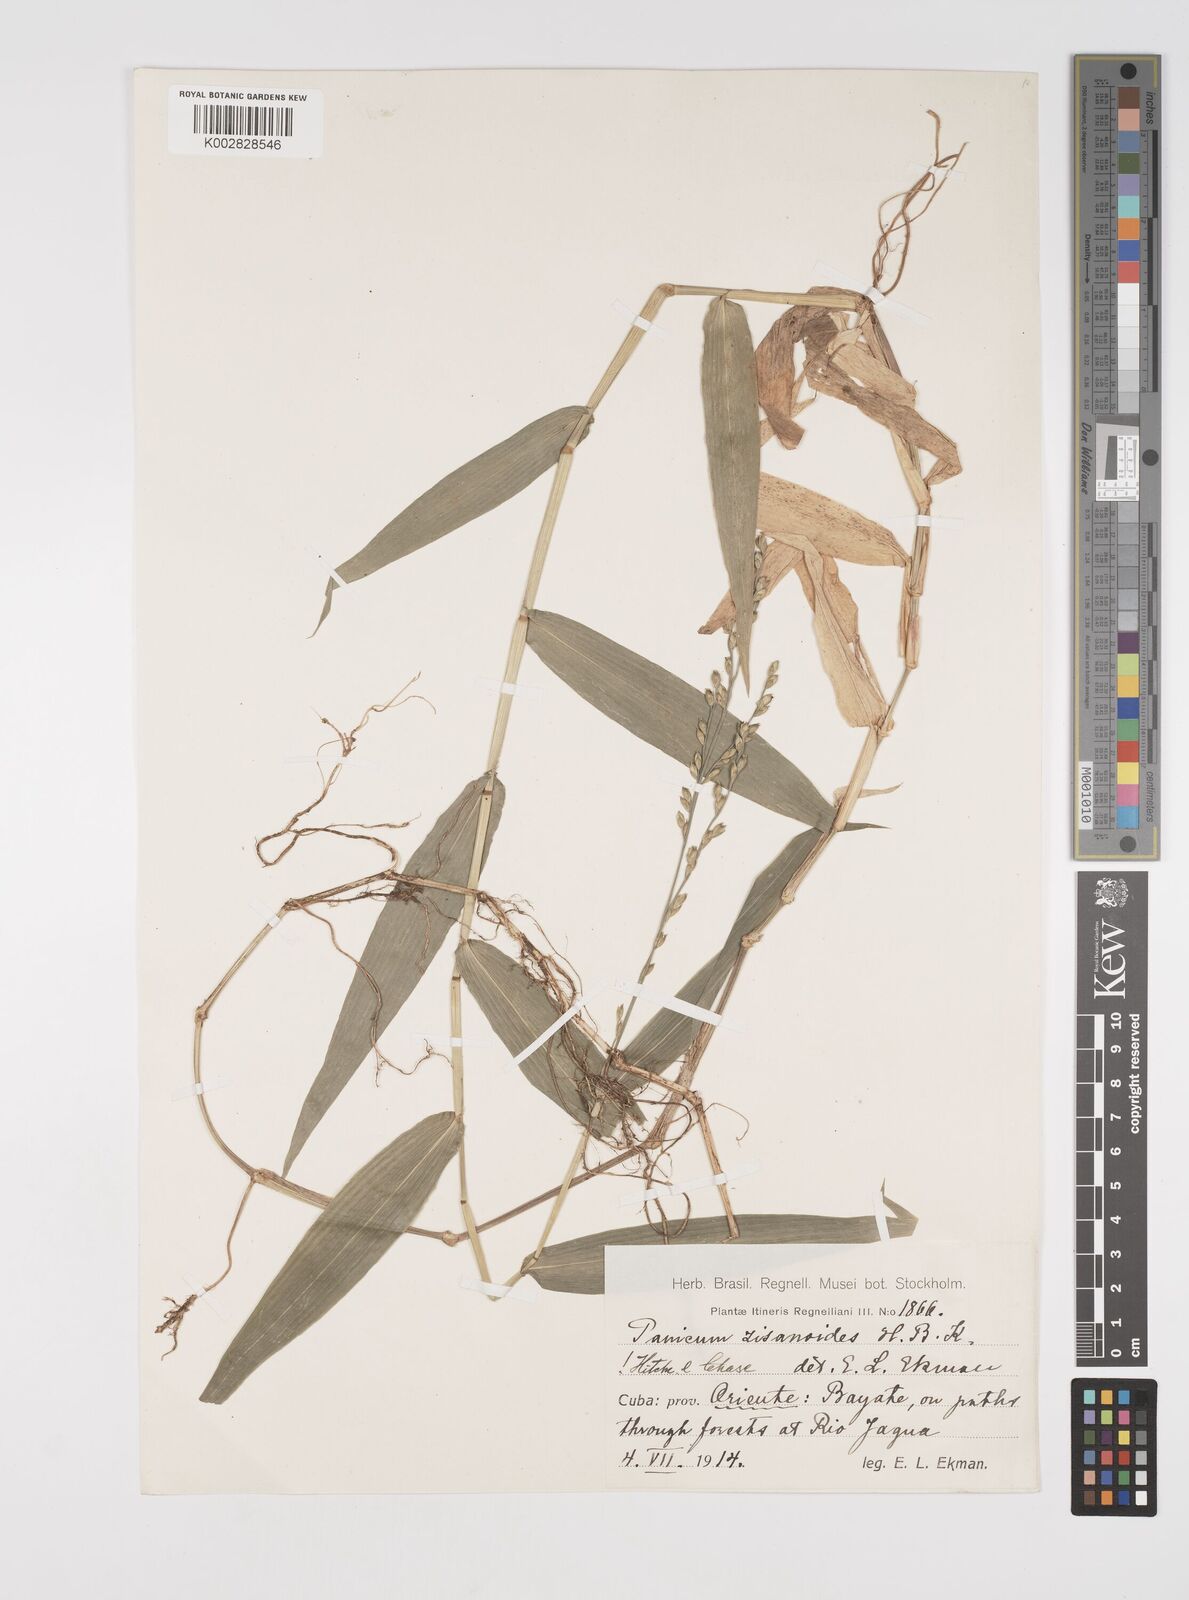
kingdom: Plantae
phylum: Tracheophyta
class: Liliopsida
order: Poales
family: Poaceae
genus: Acroceras
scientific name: Acroceras zizanioides
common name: Oat grass
